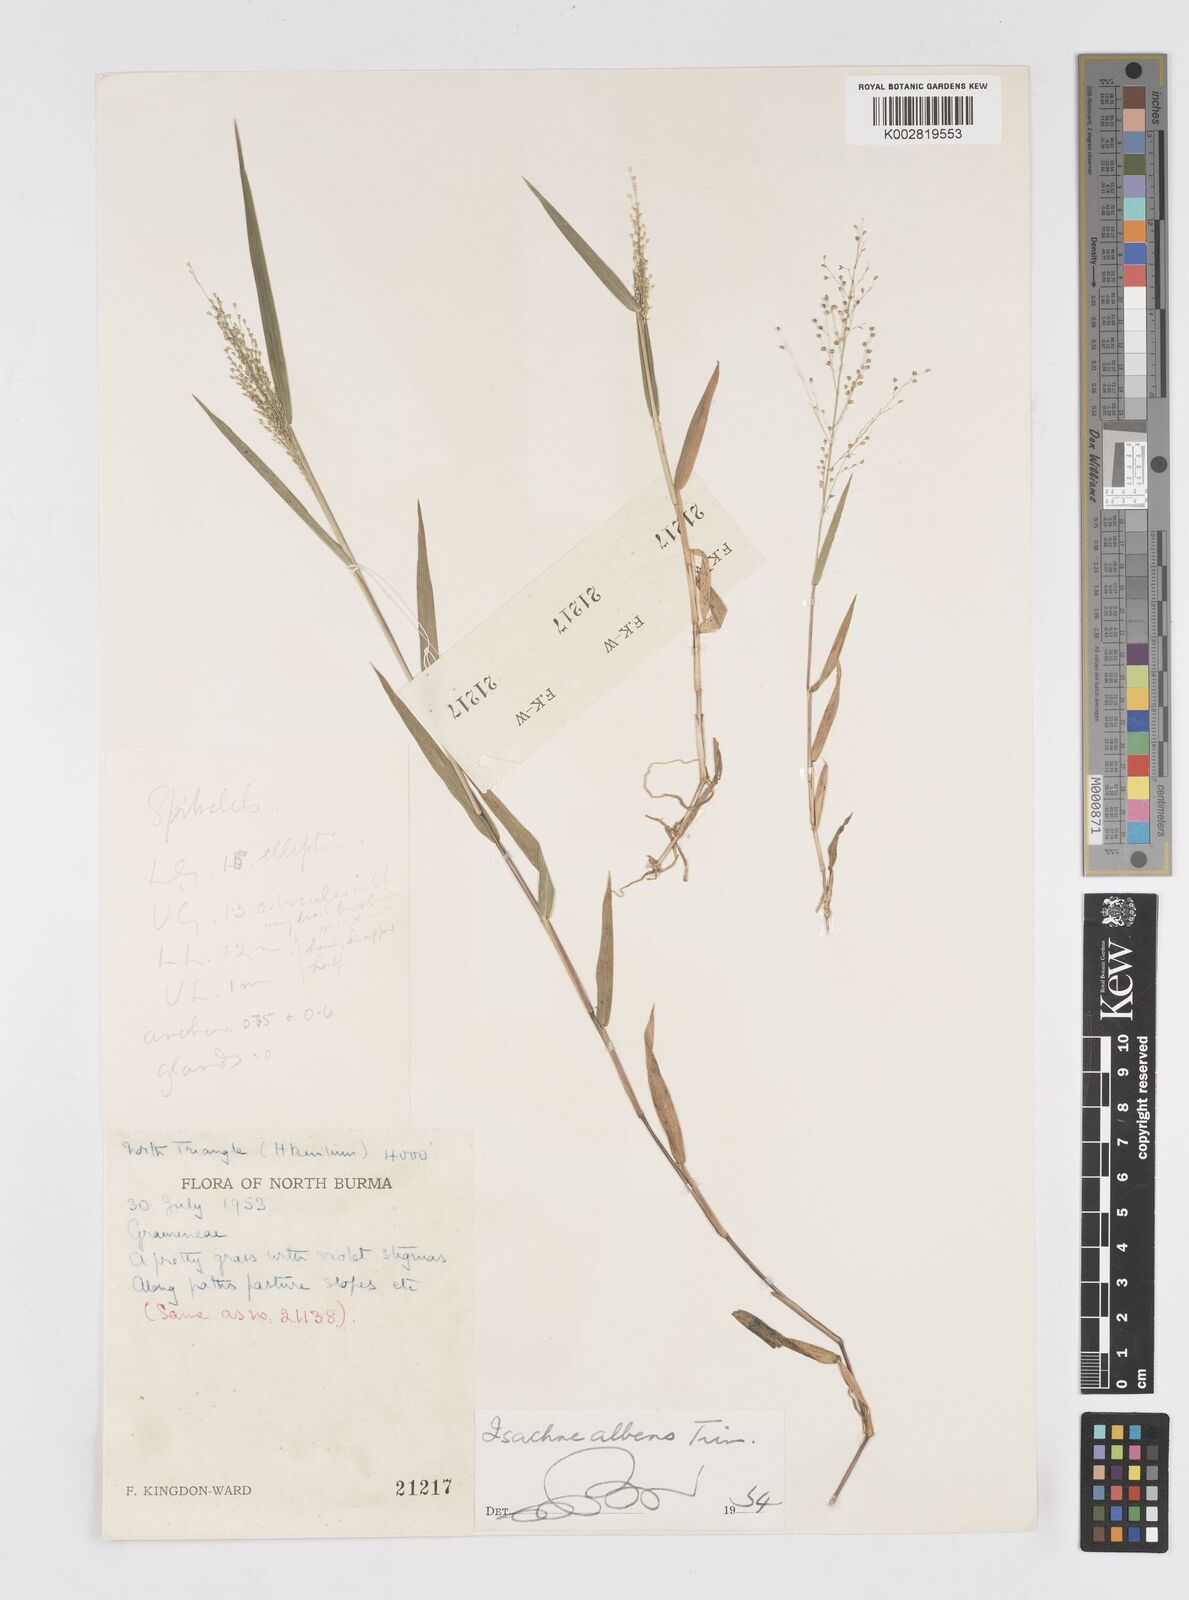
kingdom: Plantae
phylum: Tracheophyta
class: Liliopsida
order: Poales
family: Poaceae
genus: Isachne
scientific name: Isachne albens
